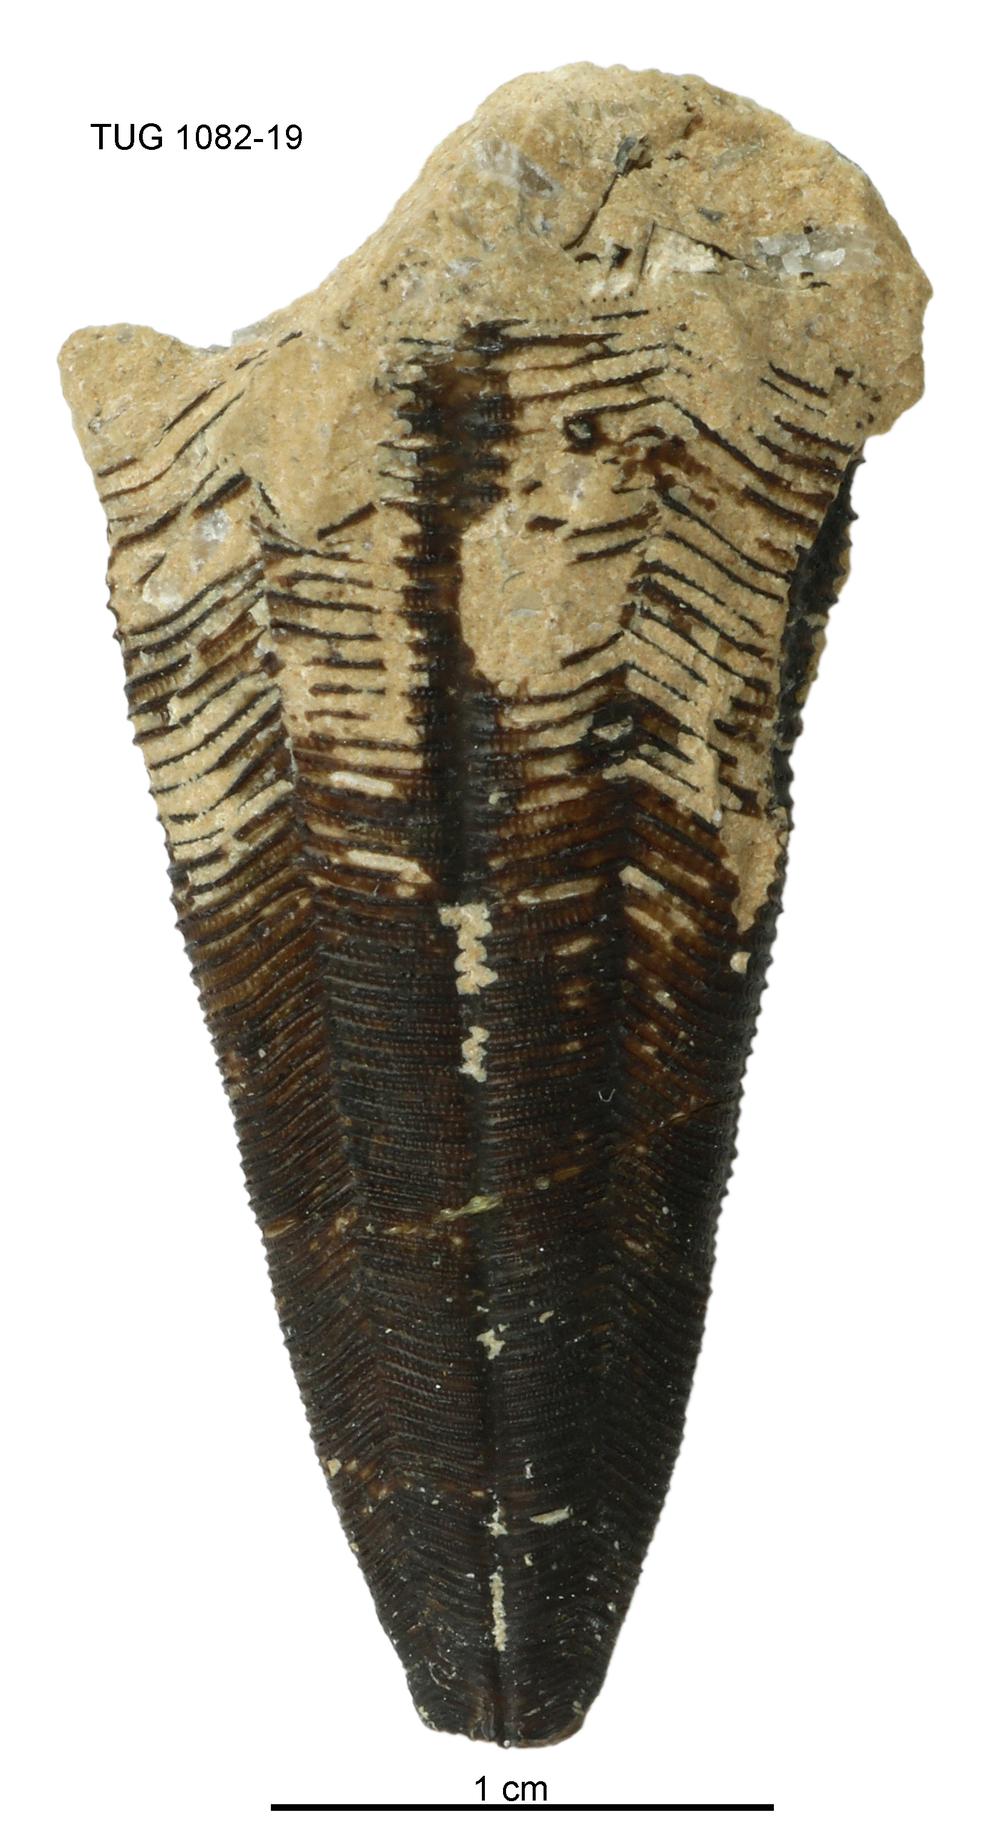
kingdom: Animalia
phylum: Cnidaria
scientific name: Cnidaria
